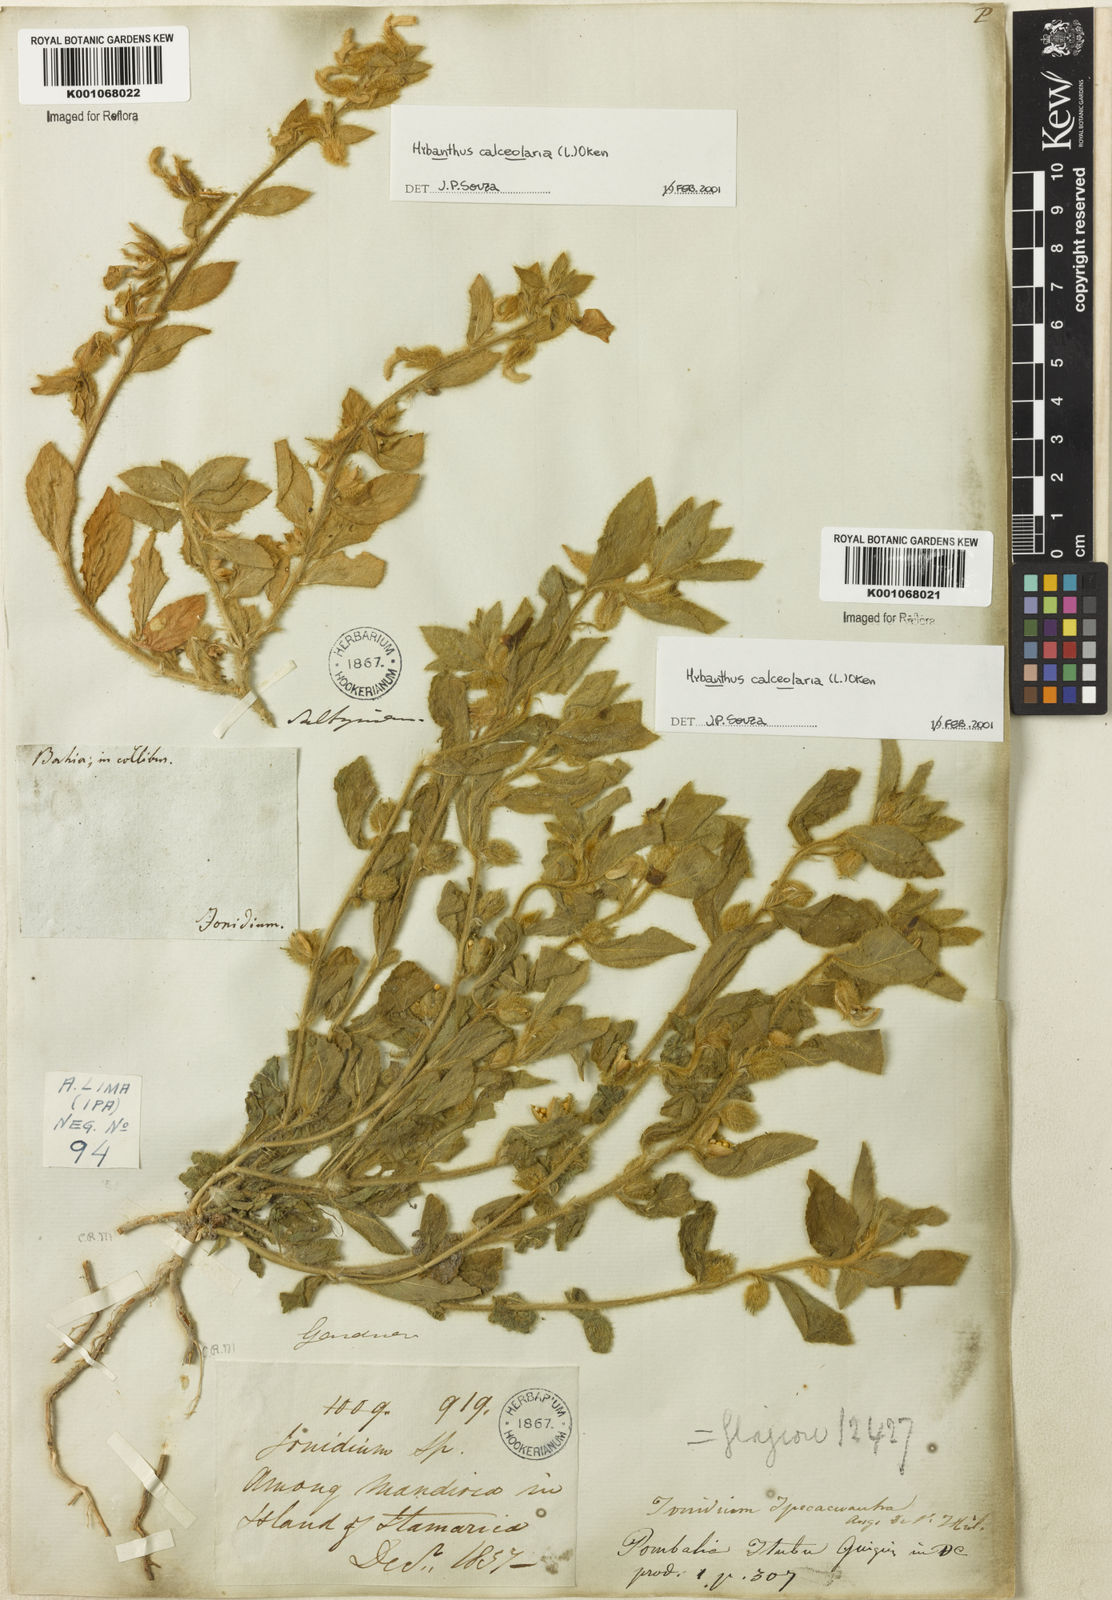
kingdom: Plantae
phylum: Tracheophyta
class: Magnoliopsida
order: Malpighiales
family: Violaceae
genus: Hybanthus
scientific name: Hybanthus
